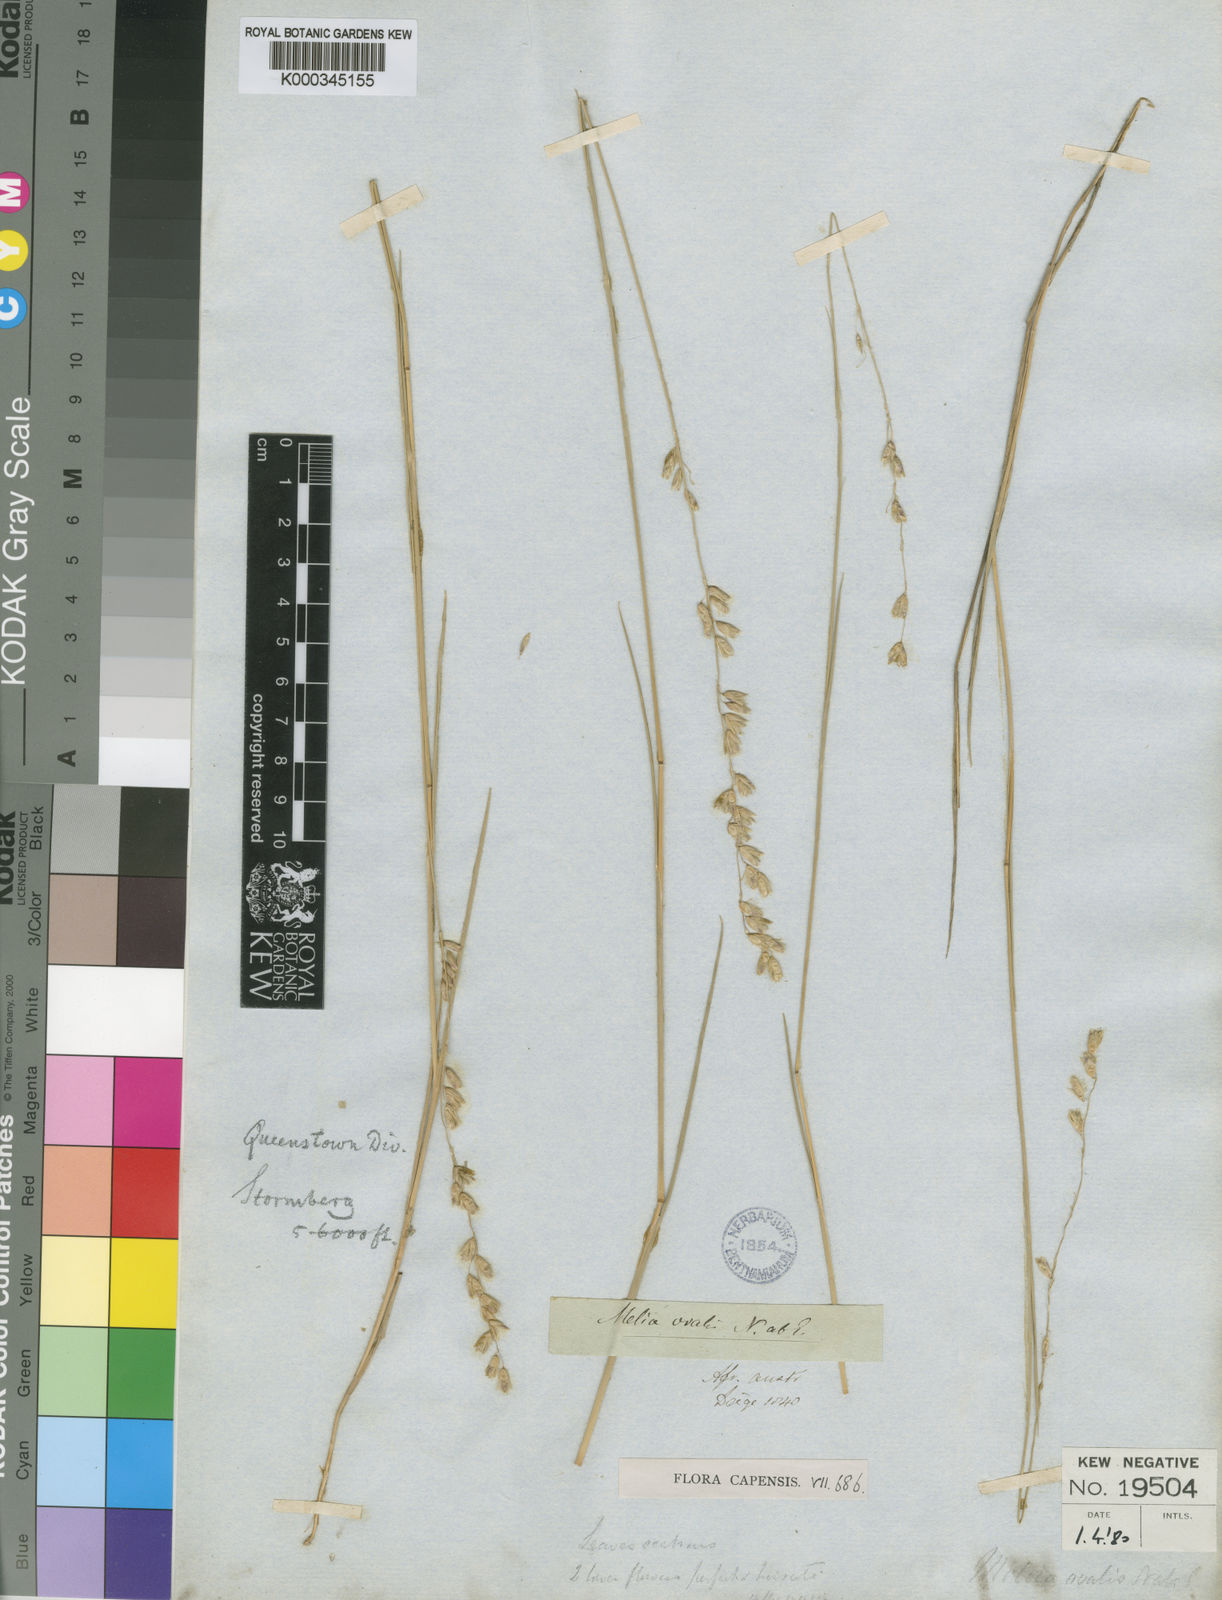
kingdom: Plantae
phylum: Tracheophyta
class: Liliopsida
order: Poales
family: Poaceae
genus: Melica
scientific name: Melica racemosa
